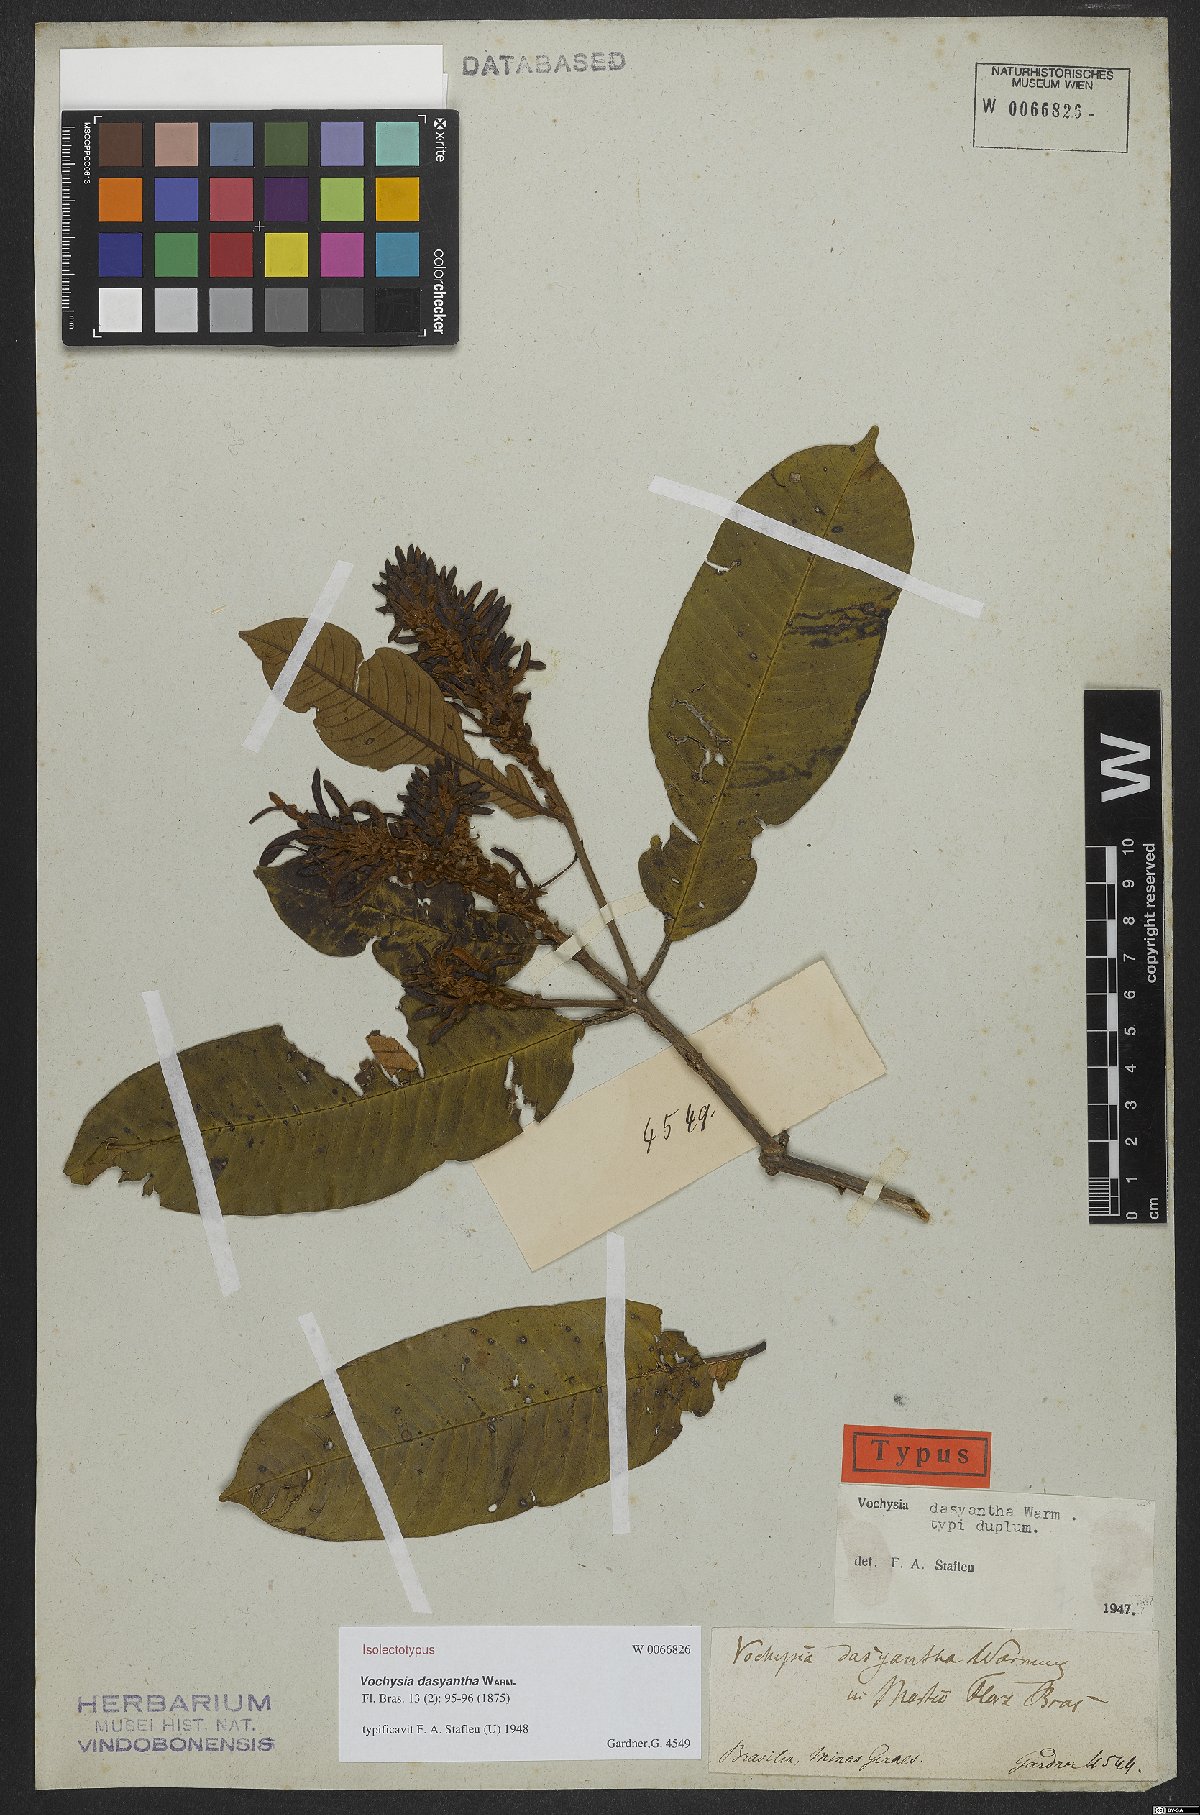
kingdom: Plantae
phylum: Tracheophyta
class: Magnoliopsida
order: Myrtales
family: Vochysiaceae
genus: Vochysia
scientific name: Vochysia dasyantha
